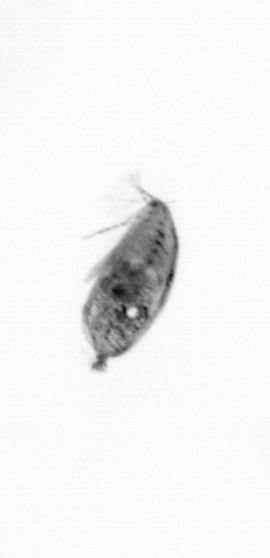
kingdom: Animalia
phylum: Arthropoda
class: Maxillopoda
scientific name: Maxillopoda
